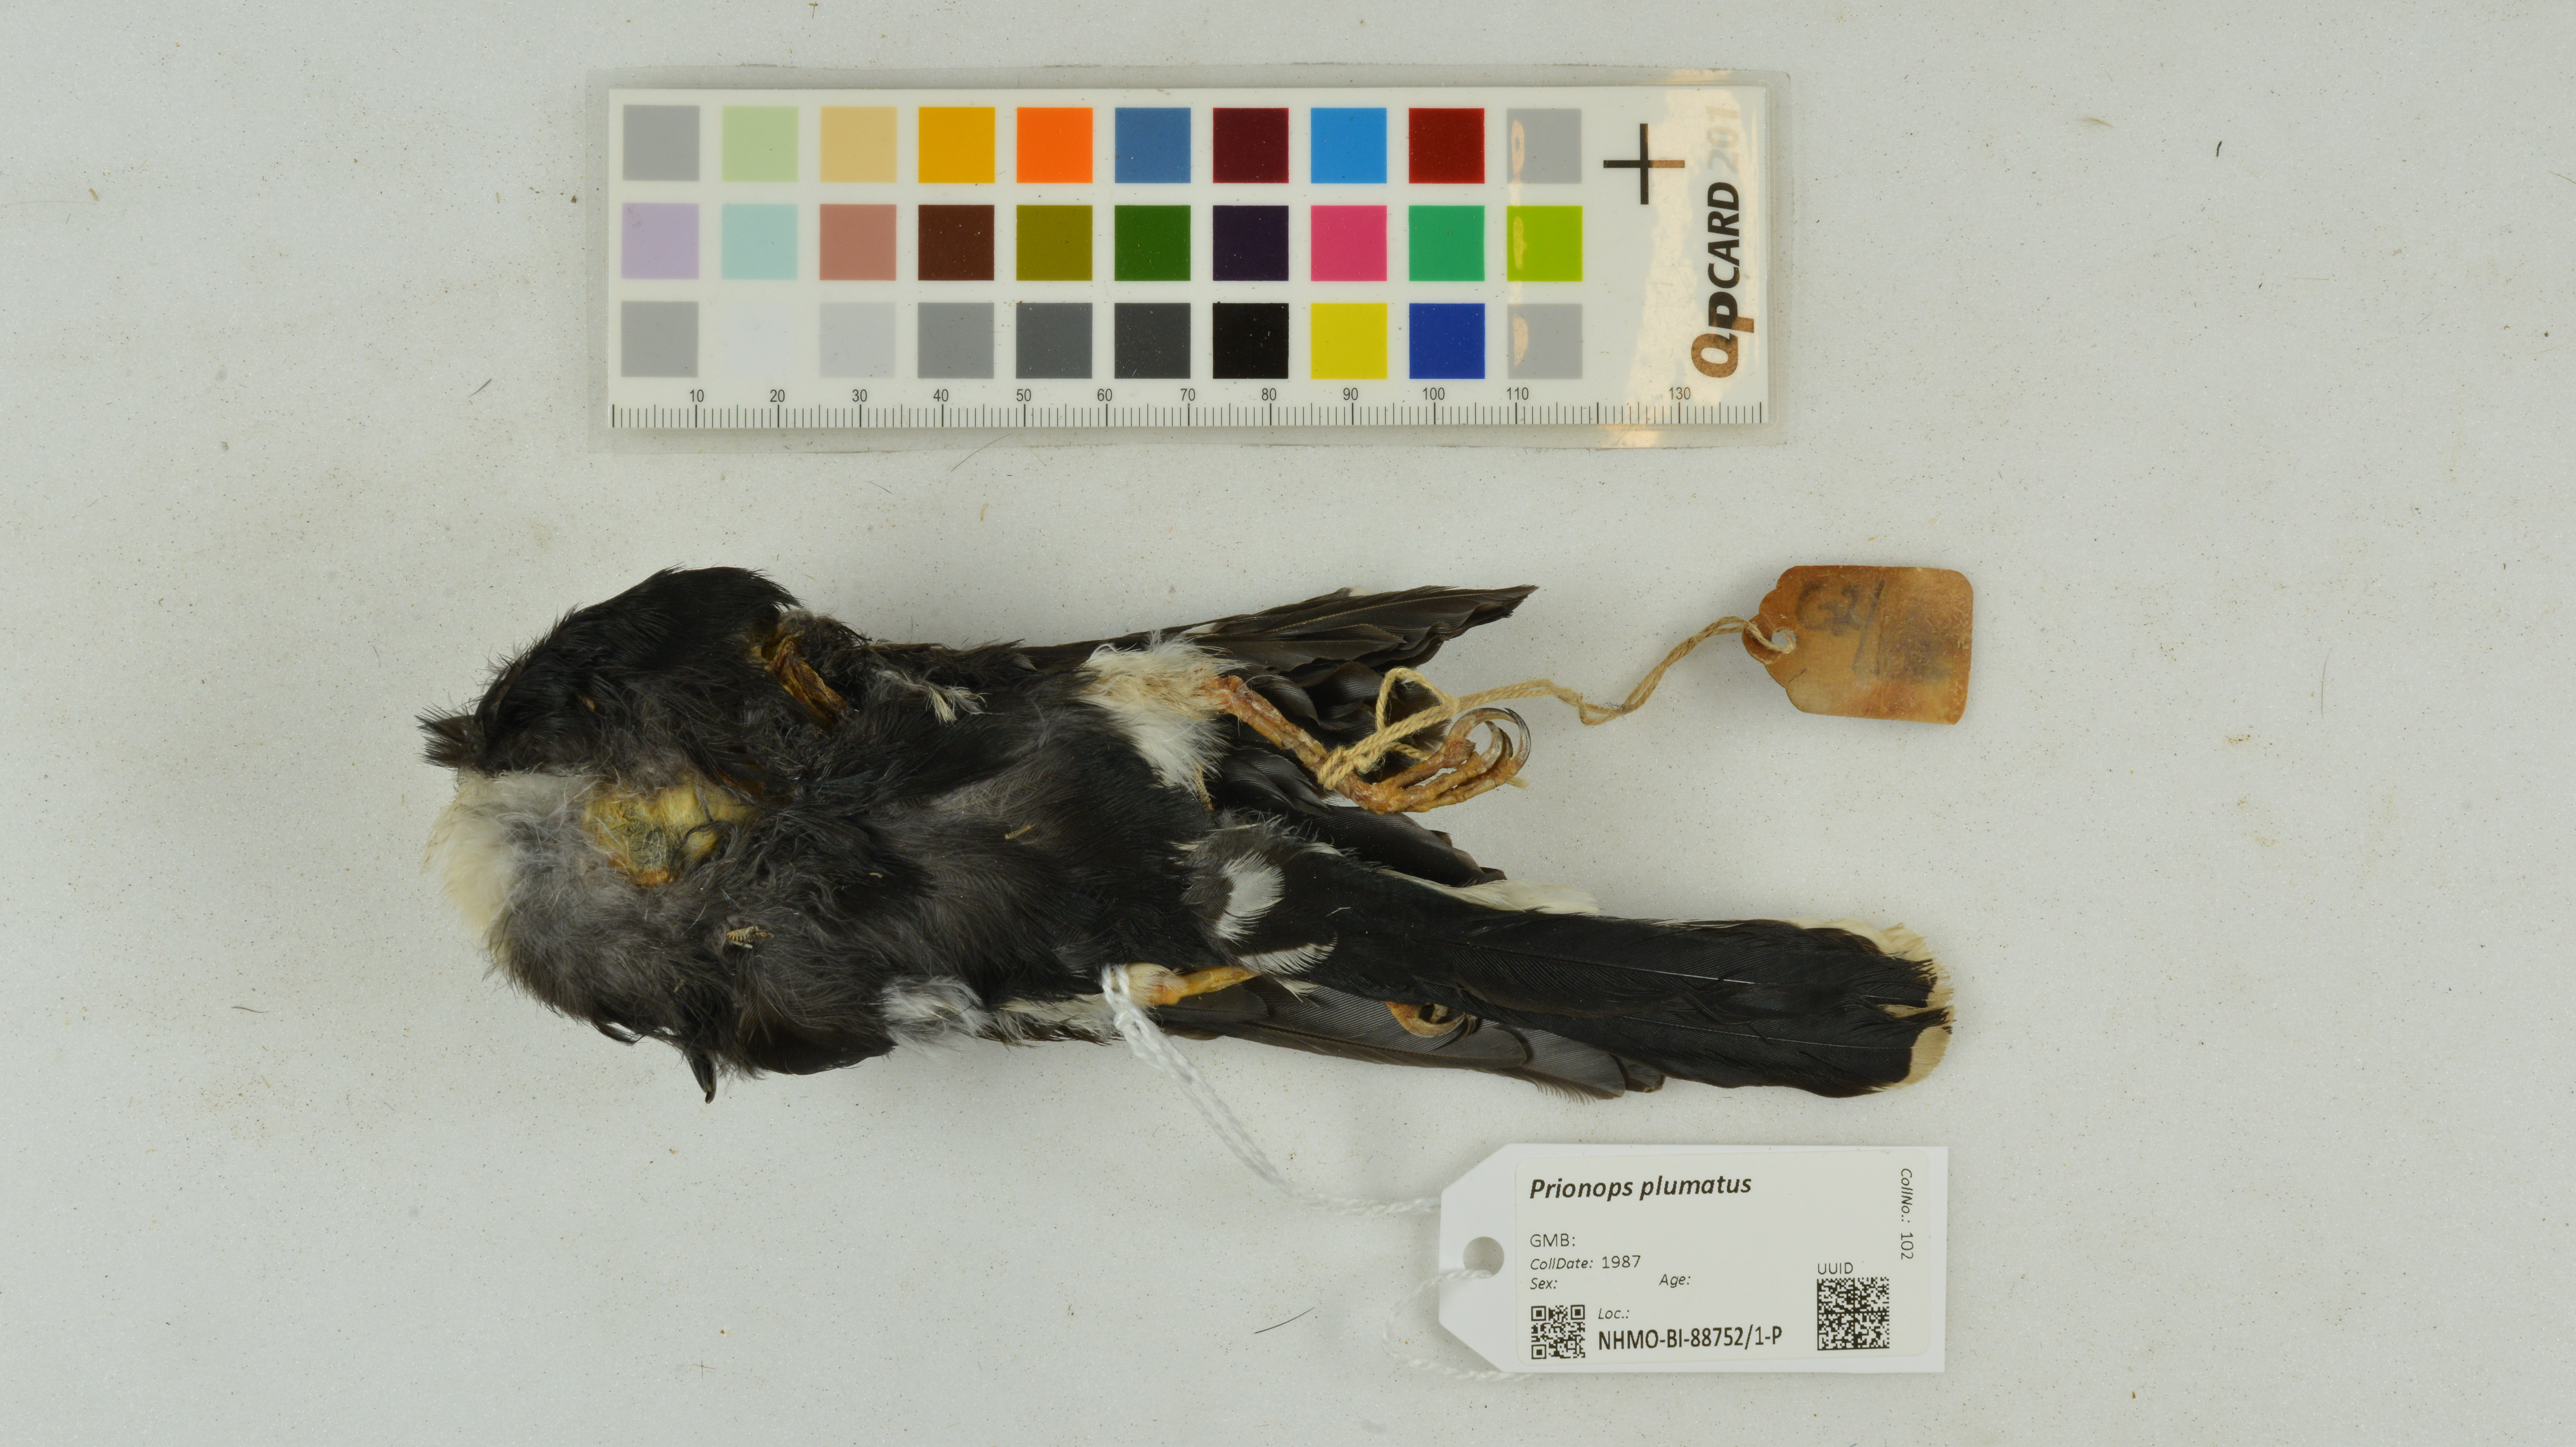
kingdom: Animalia
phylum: Chordata
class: Aves
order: Passeriformes
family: Prionopidae
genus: Prionops
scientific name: Prionops plumatus
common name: White-crested helmetshrike
